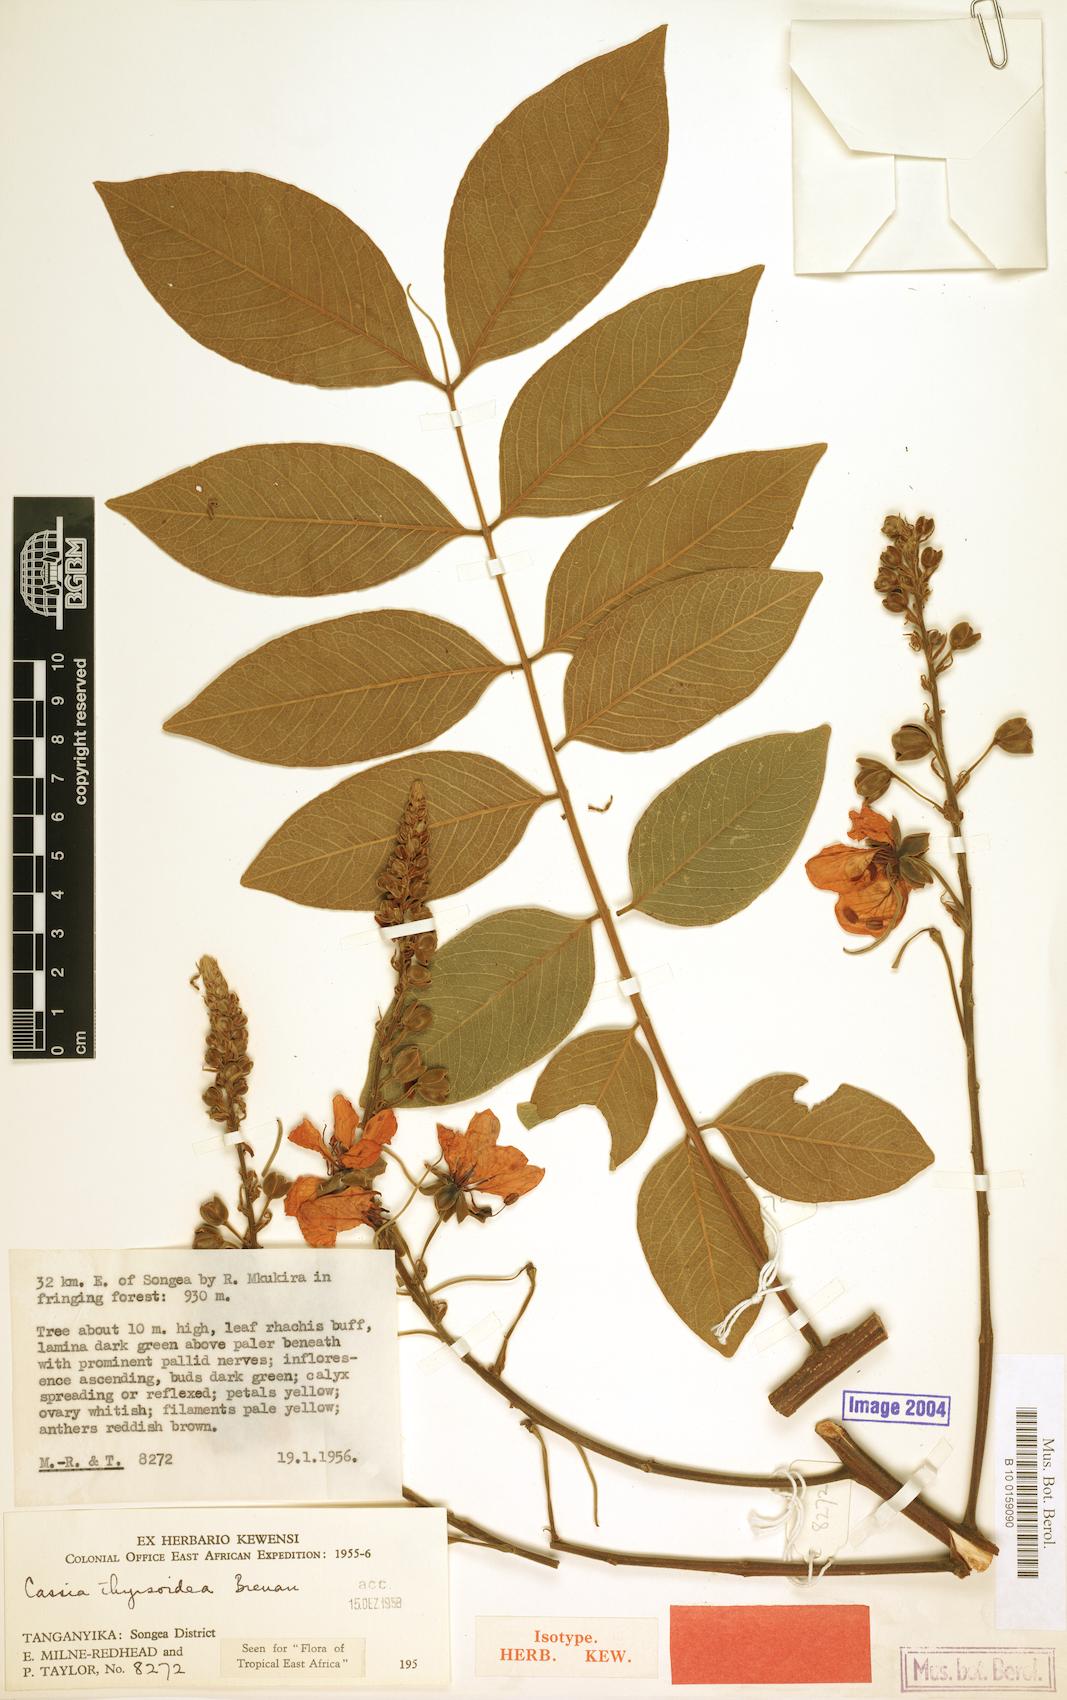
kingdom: Plantae
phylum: Tracheophyta
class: Magnoliopsida
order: Fabales
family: Fabaceae
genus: Cassia
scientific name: Cassia thyrsoidea
